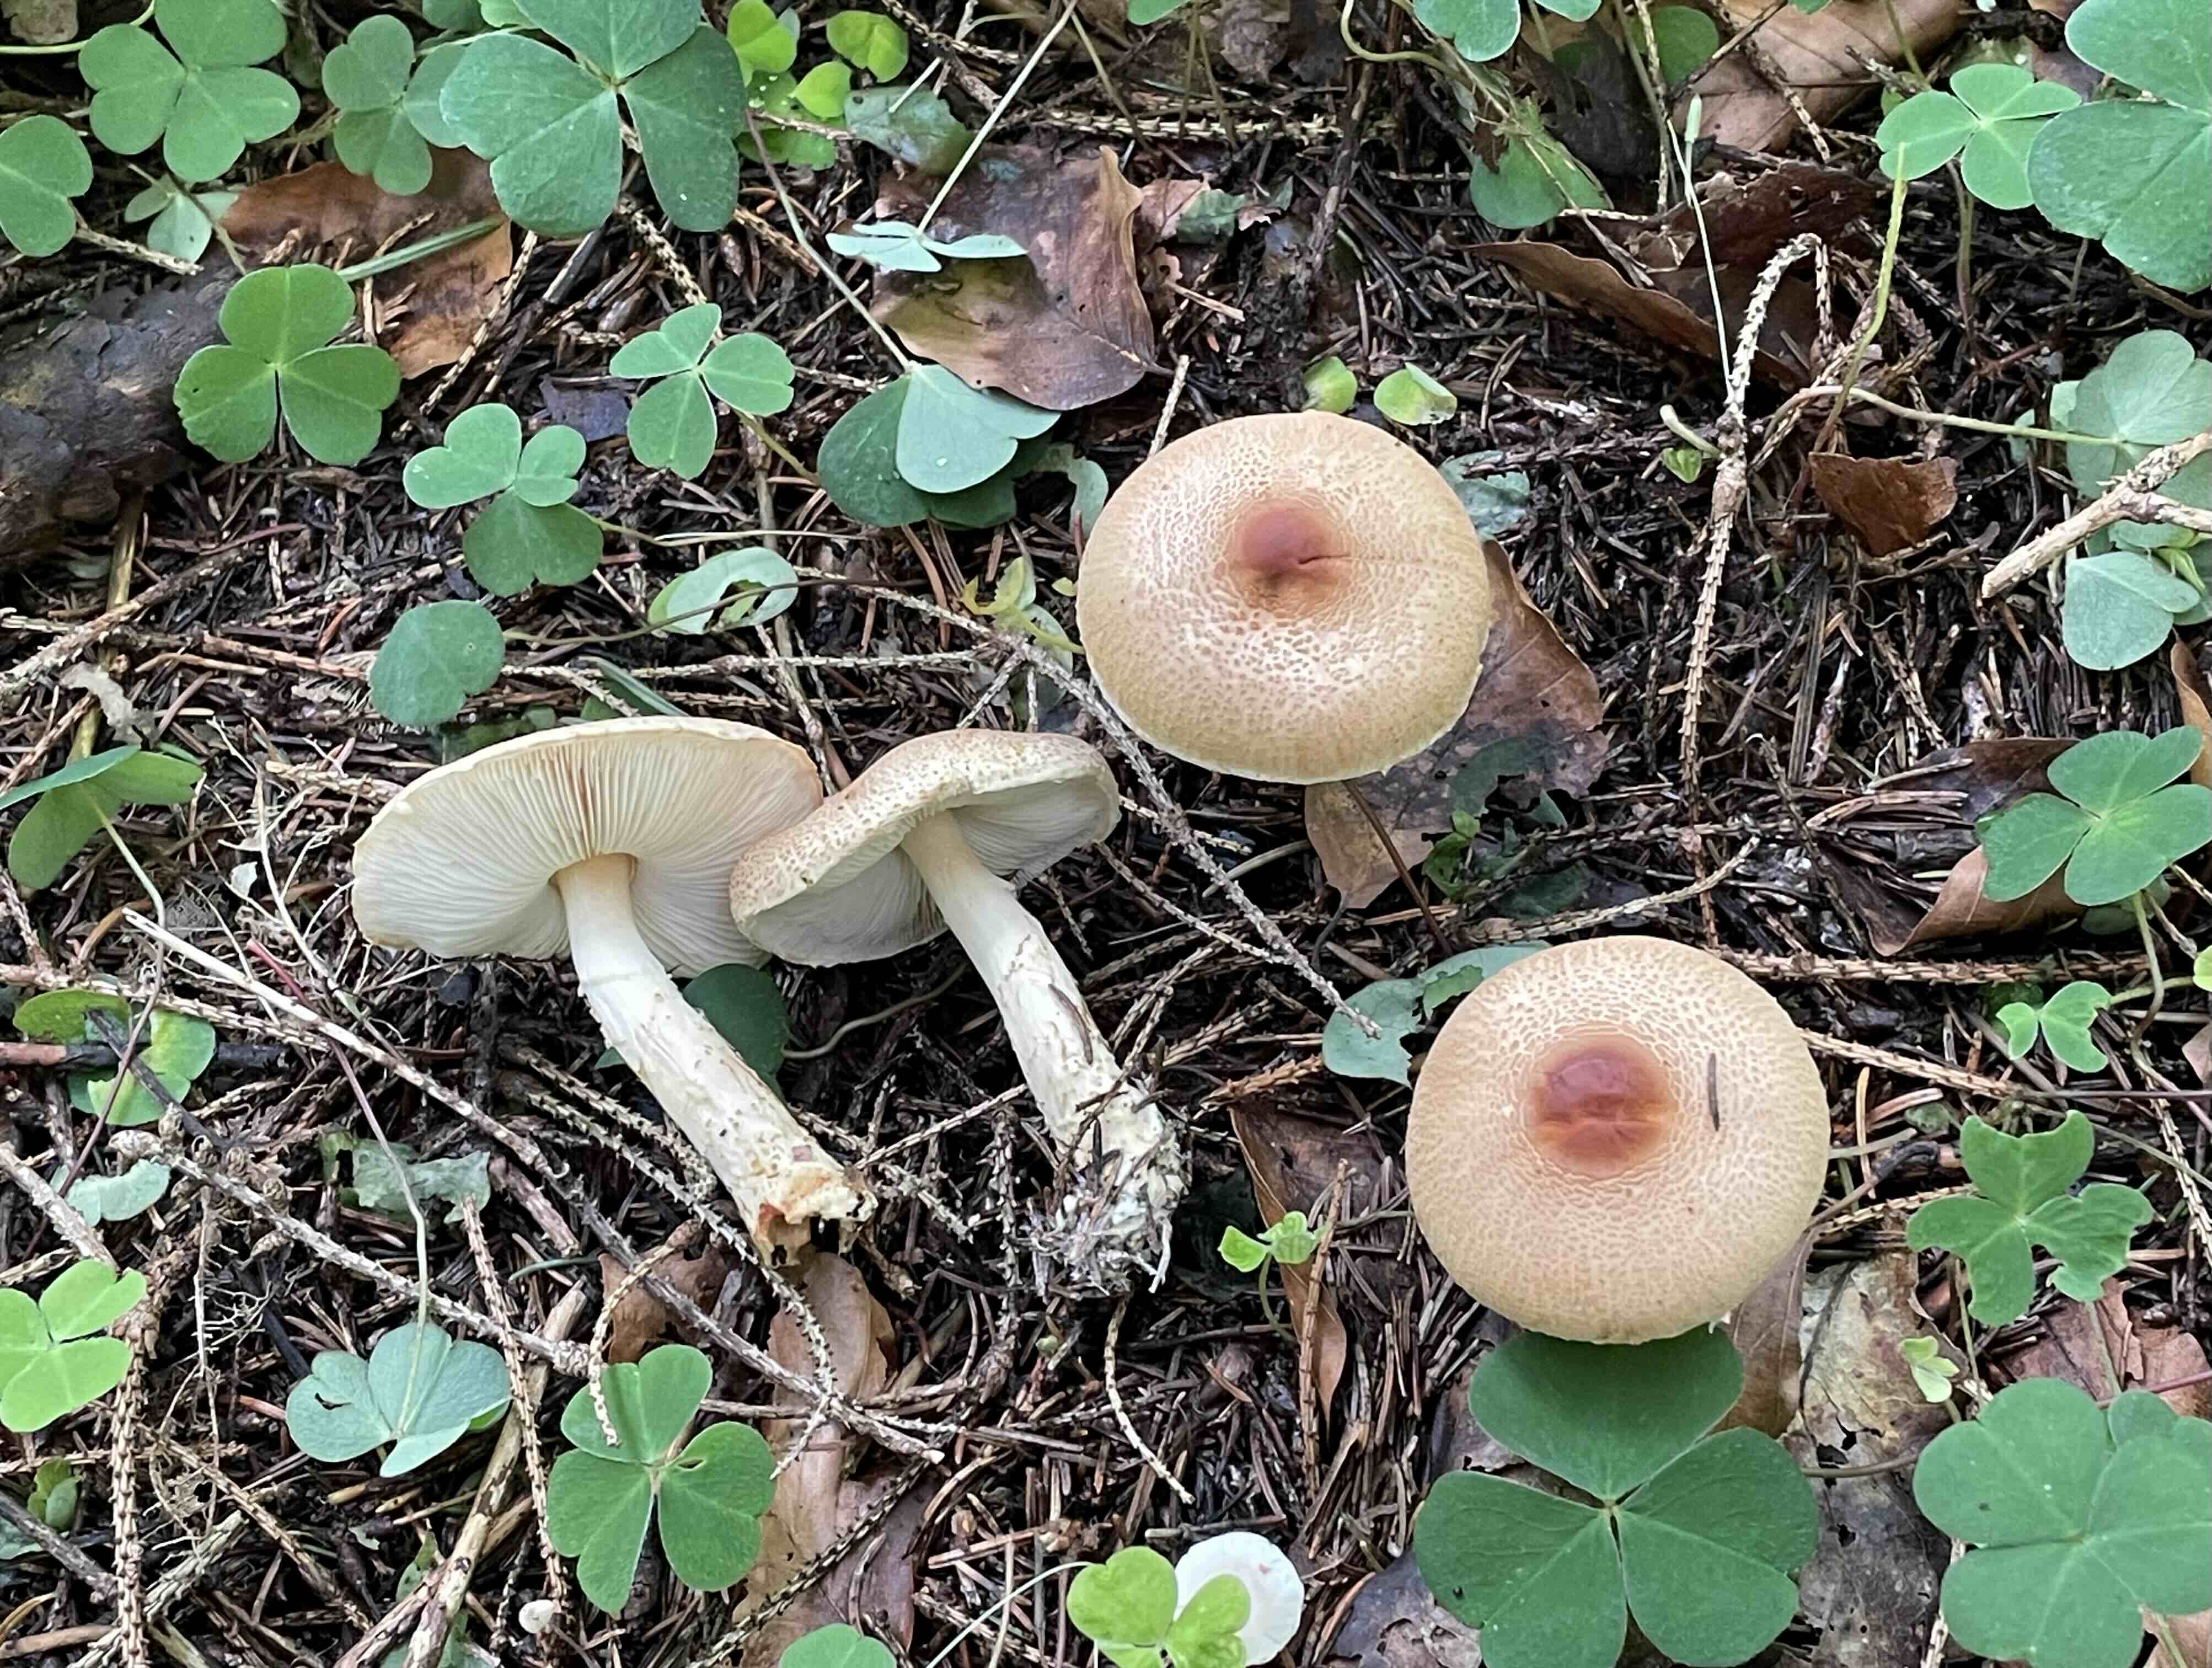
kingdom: Fungi
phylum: Basidiomycota
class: Agaricomycetes
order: Agaricales
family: Agaricaceae
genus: Lepiota
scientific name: Lepiota ochraceofulva
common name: sødtduftende parasolhat
